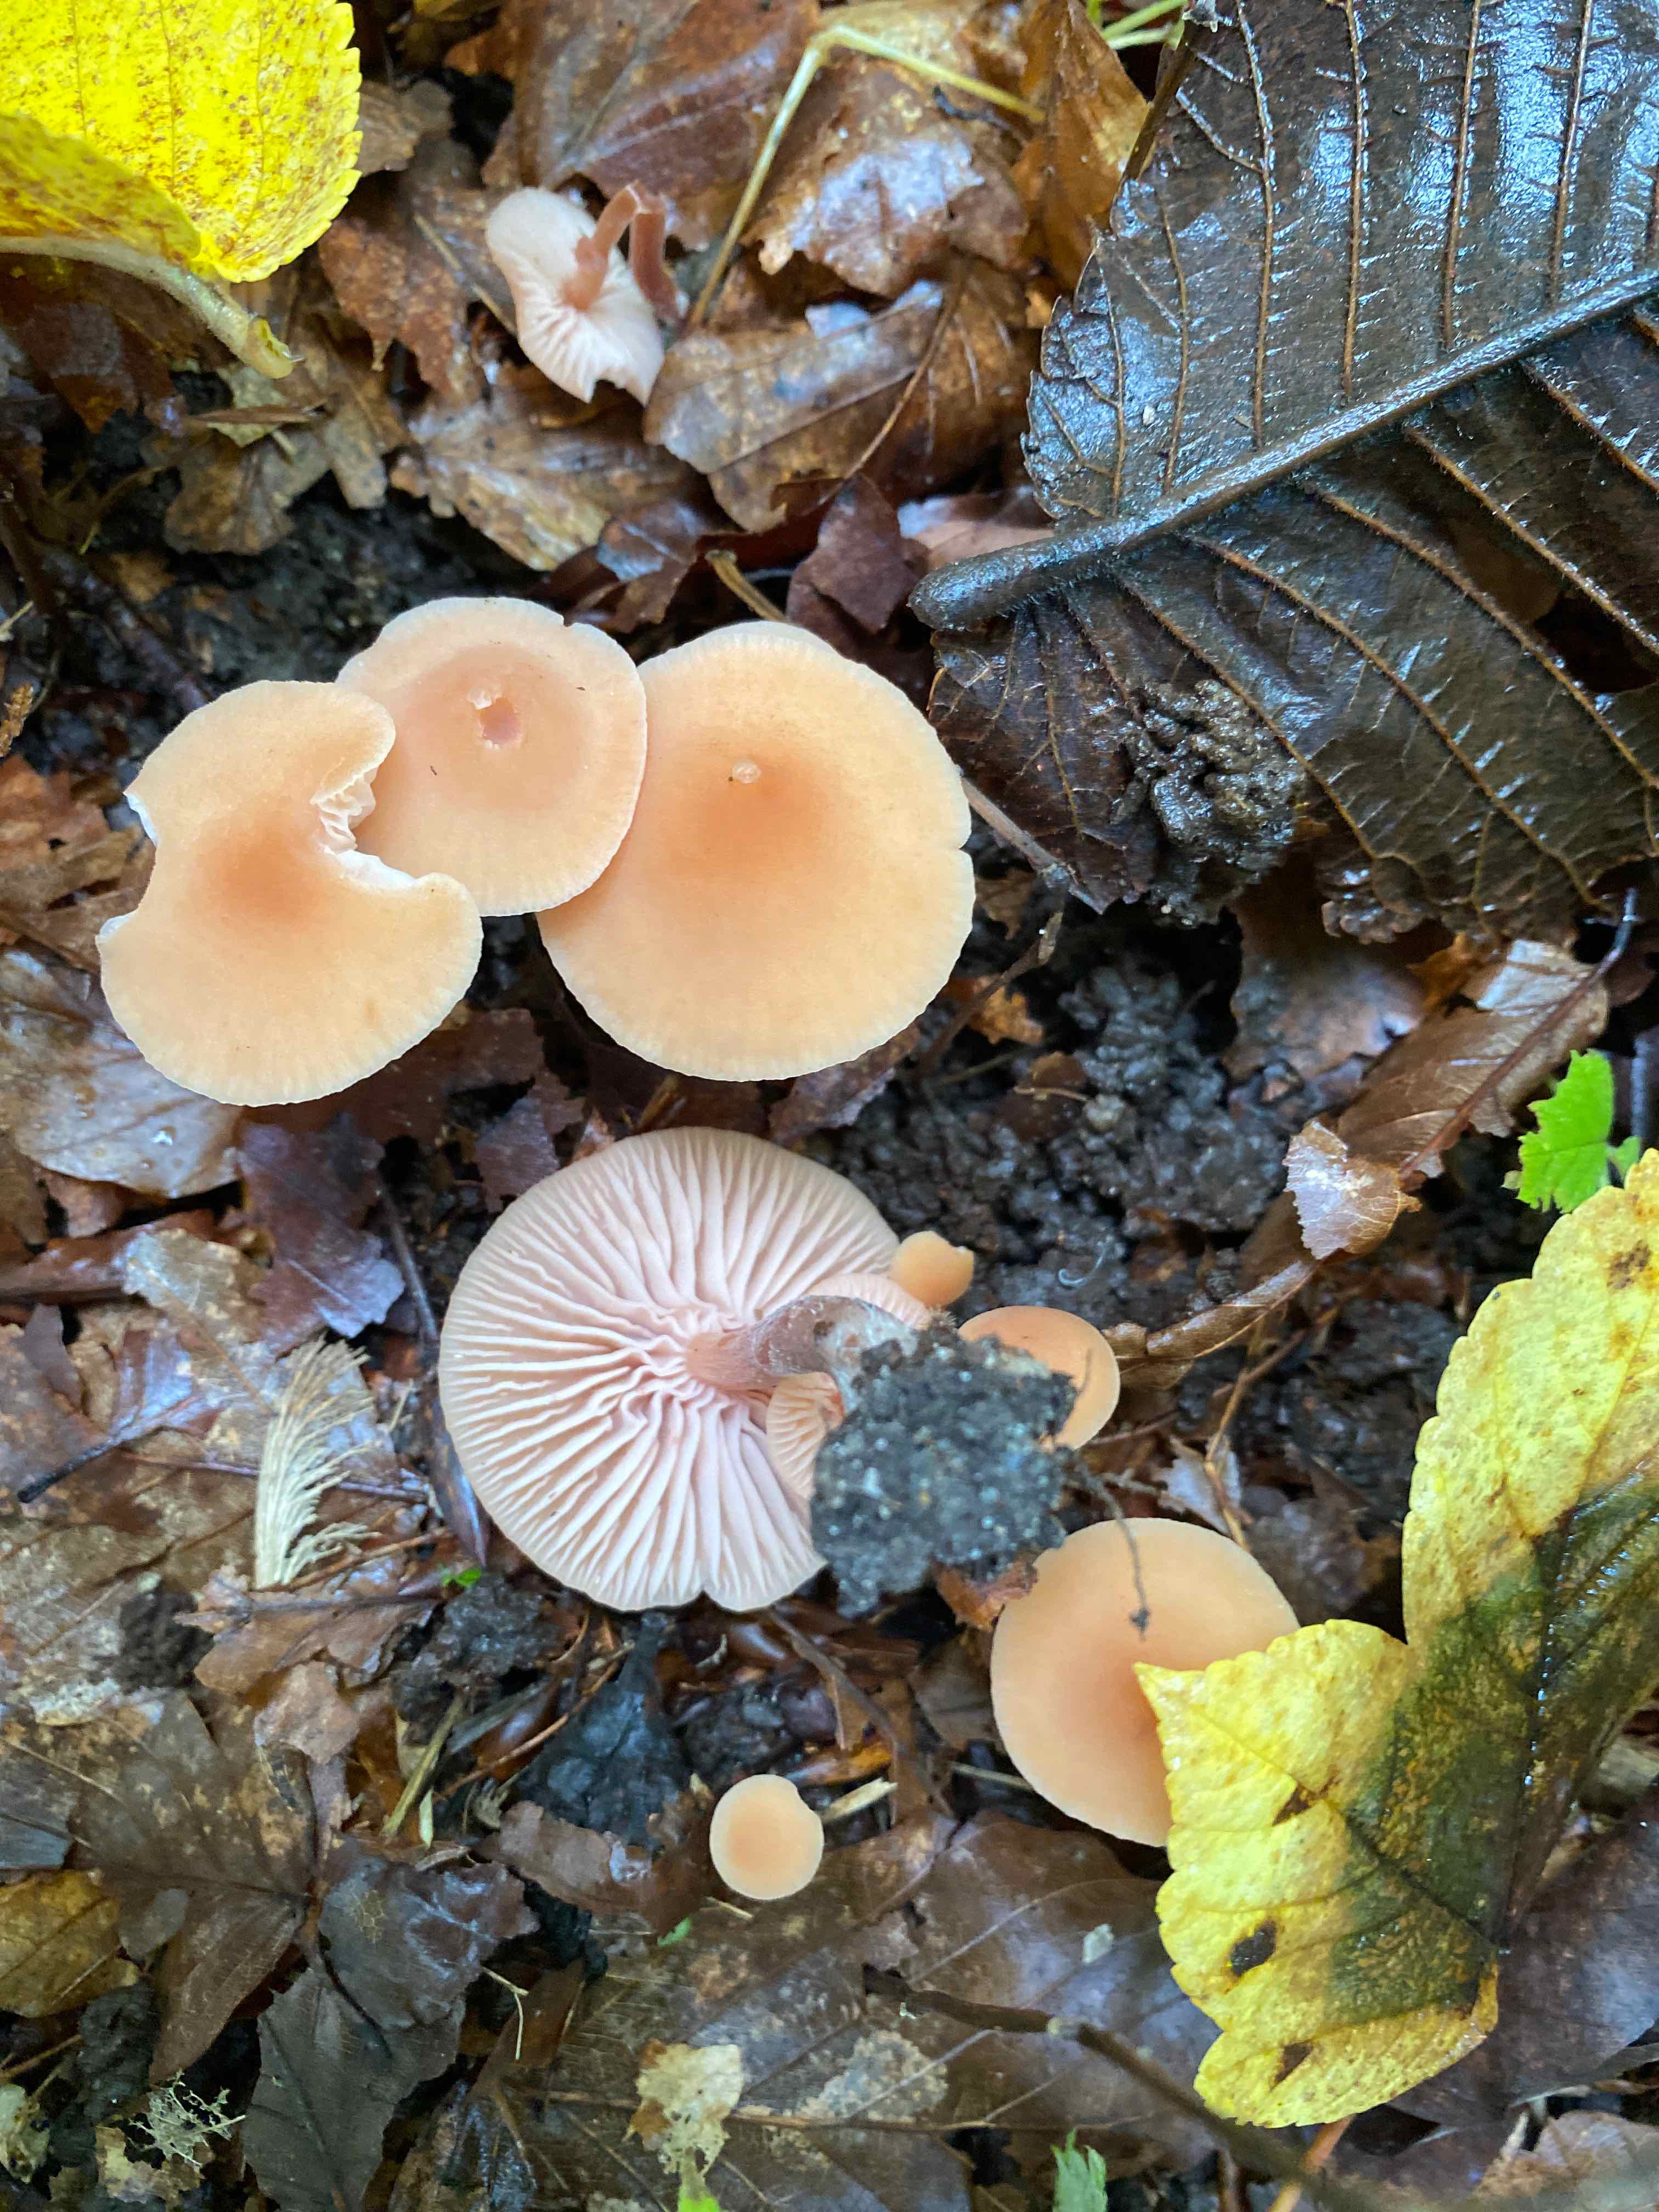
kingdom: Fungi
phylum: Basidiomycota
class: Agaricomycetes
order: Agaricales
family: Hydnangiaceae
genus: Laccaria
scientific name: Laccaria laccata
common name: rød ametysthat
